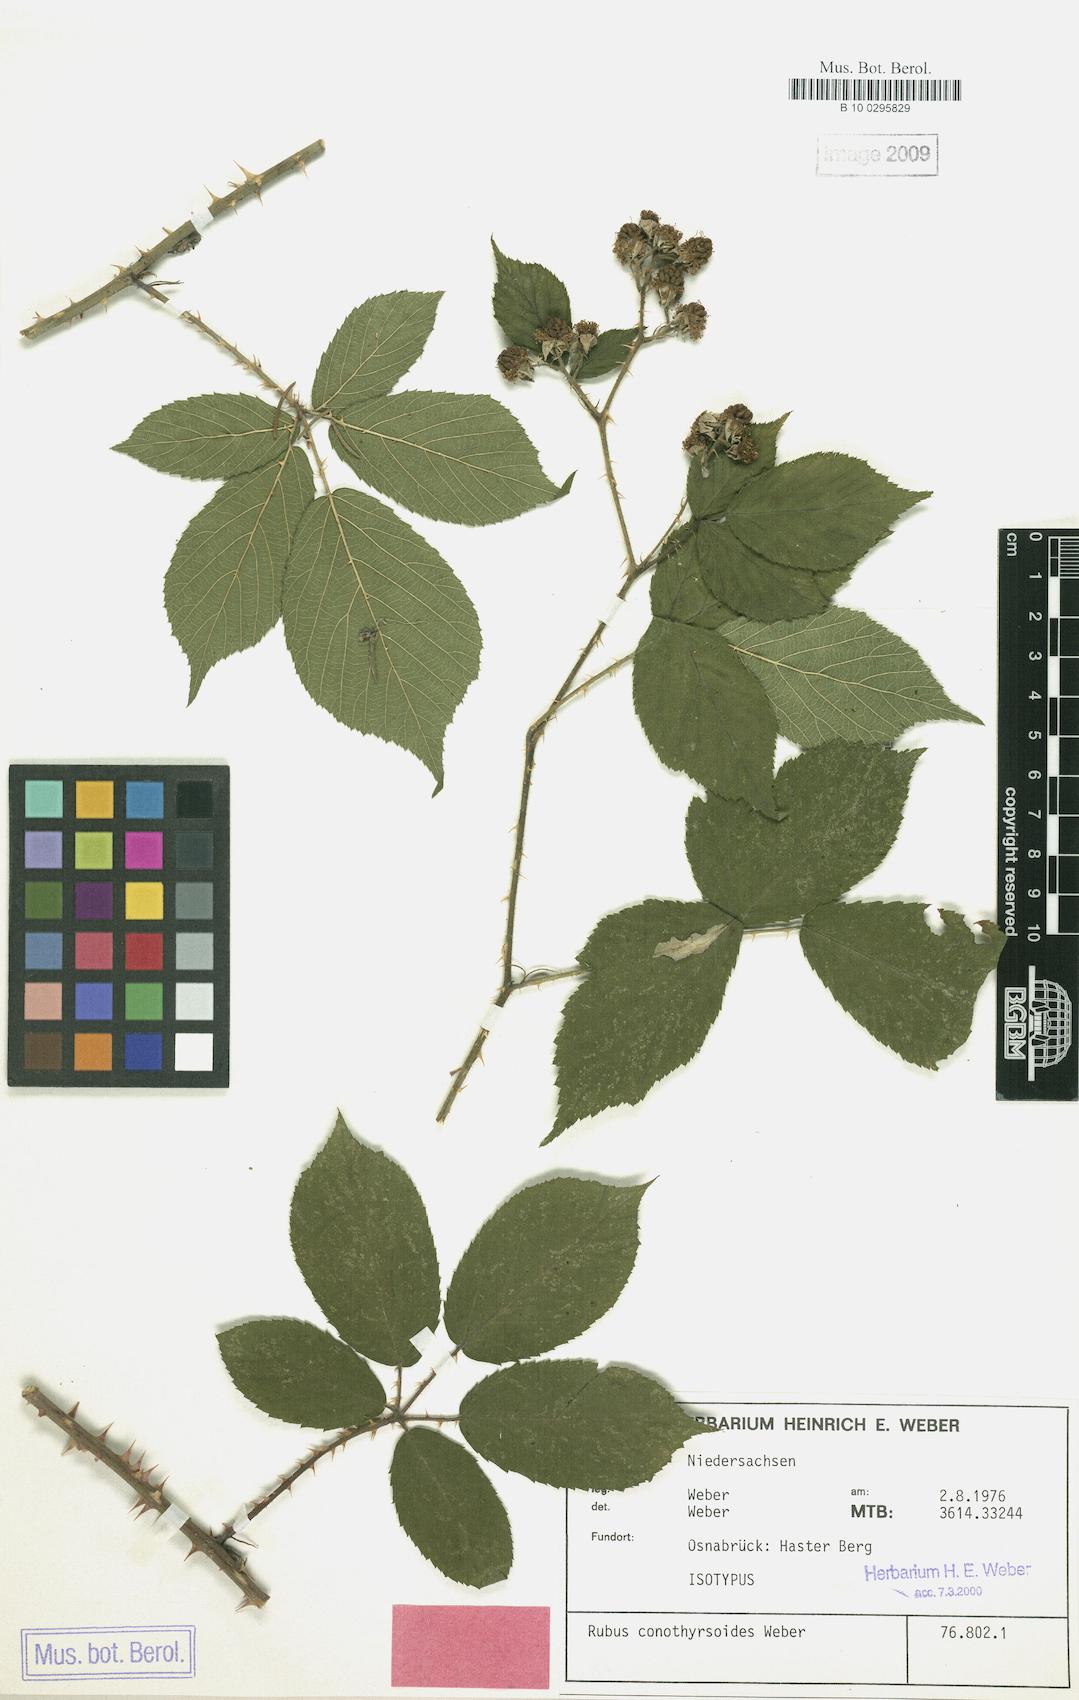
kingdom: Plantae
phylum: Tracheophyta
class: Magnoliopsida
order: Rosales
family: Rosaceae
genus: Rubus
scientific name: Rubus conothyrsoides
